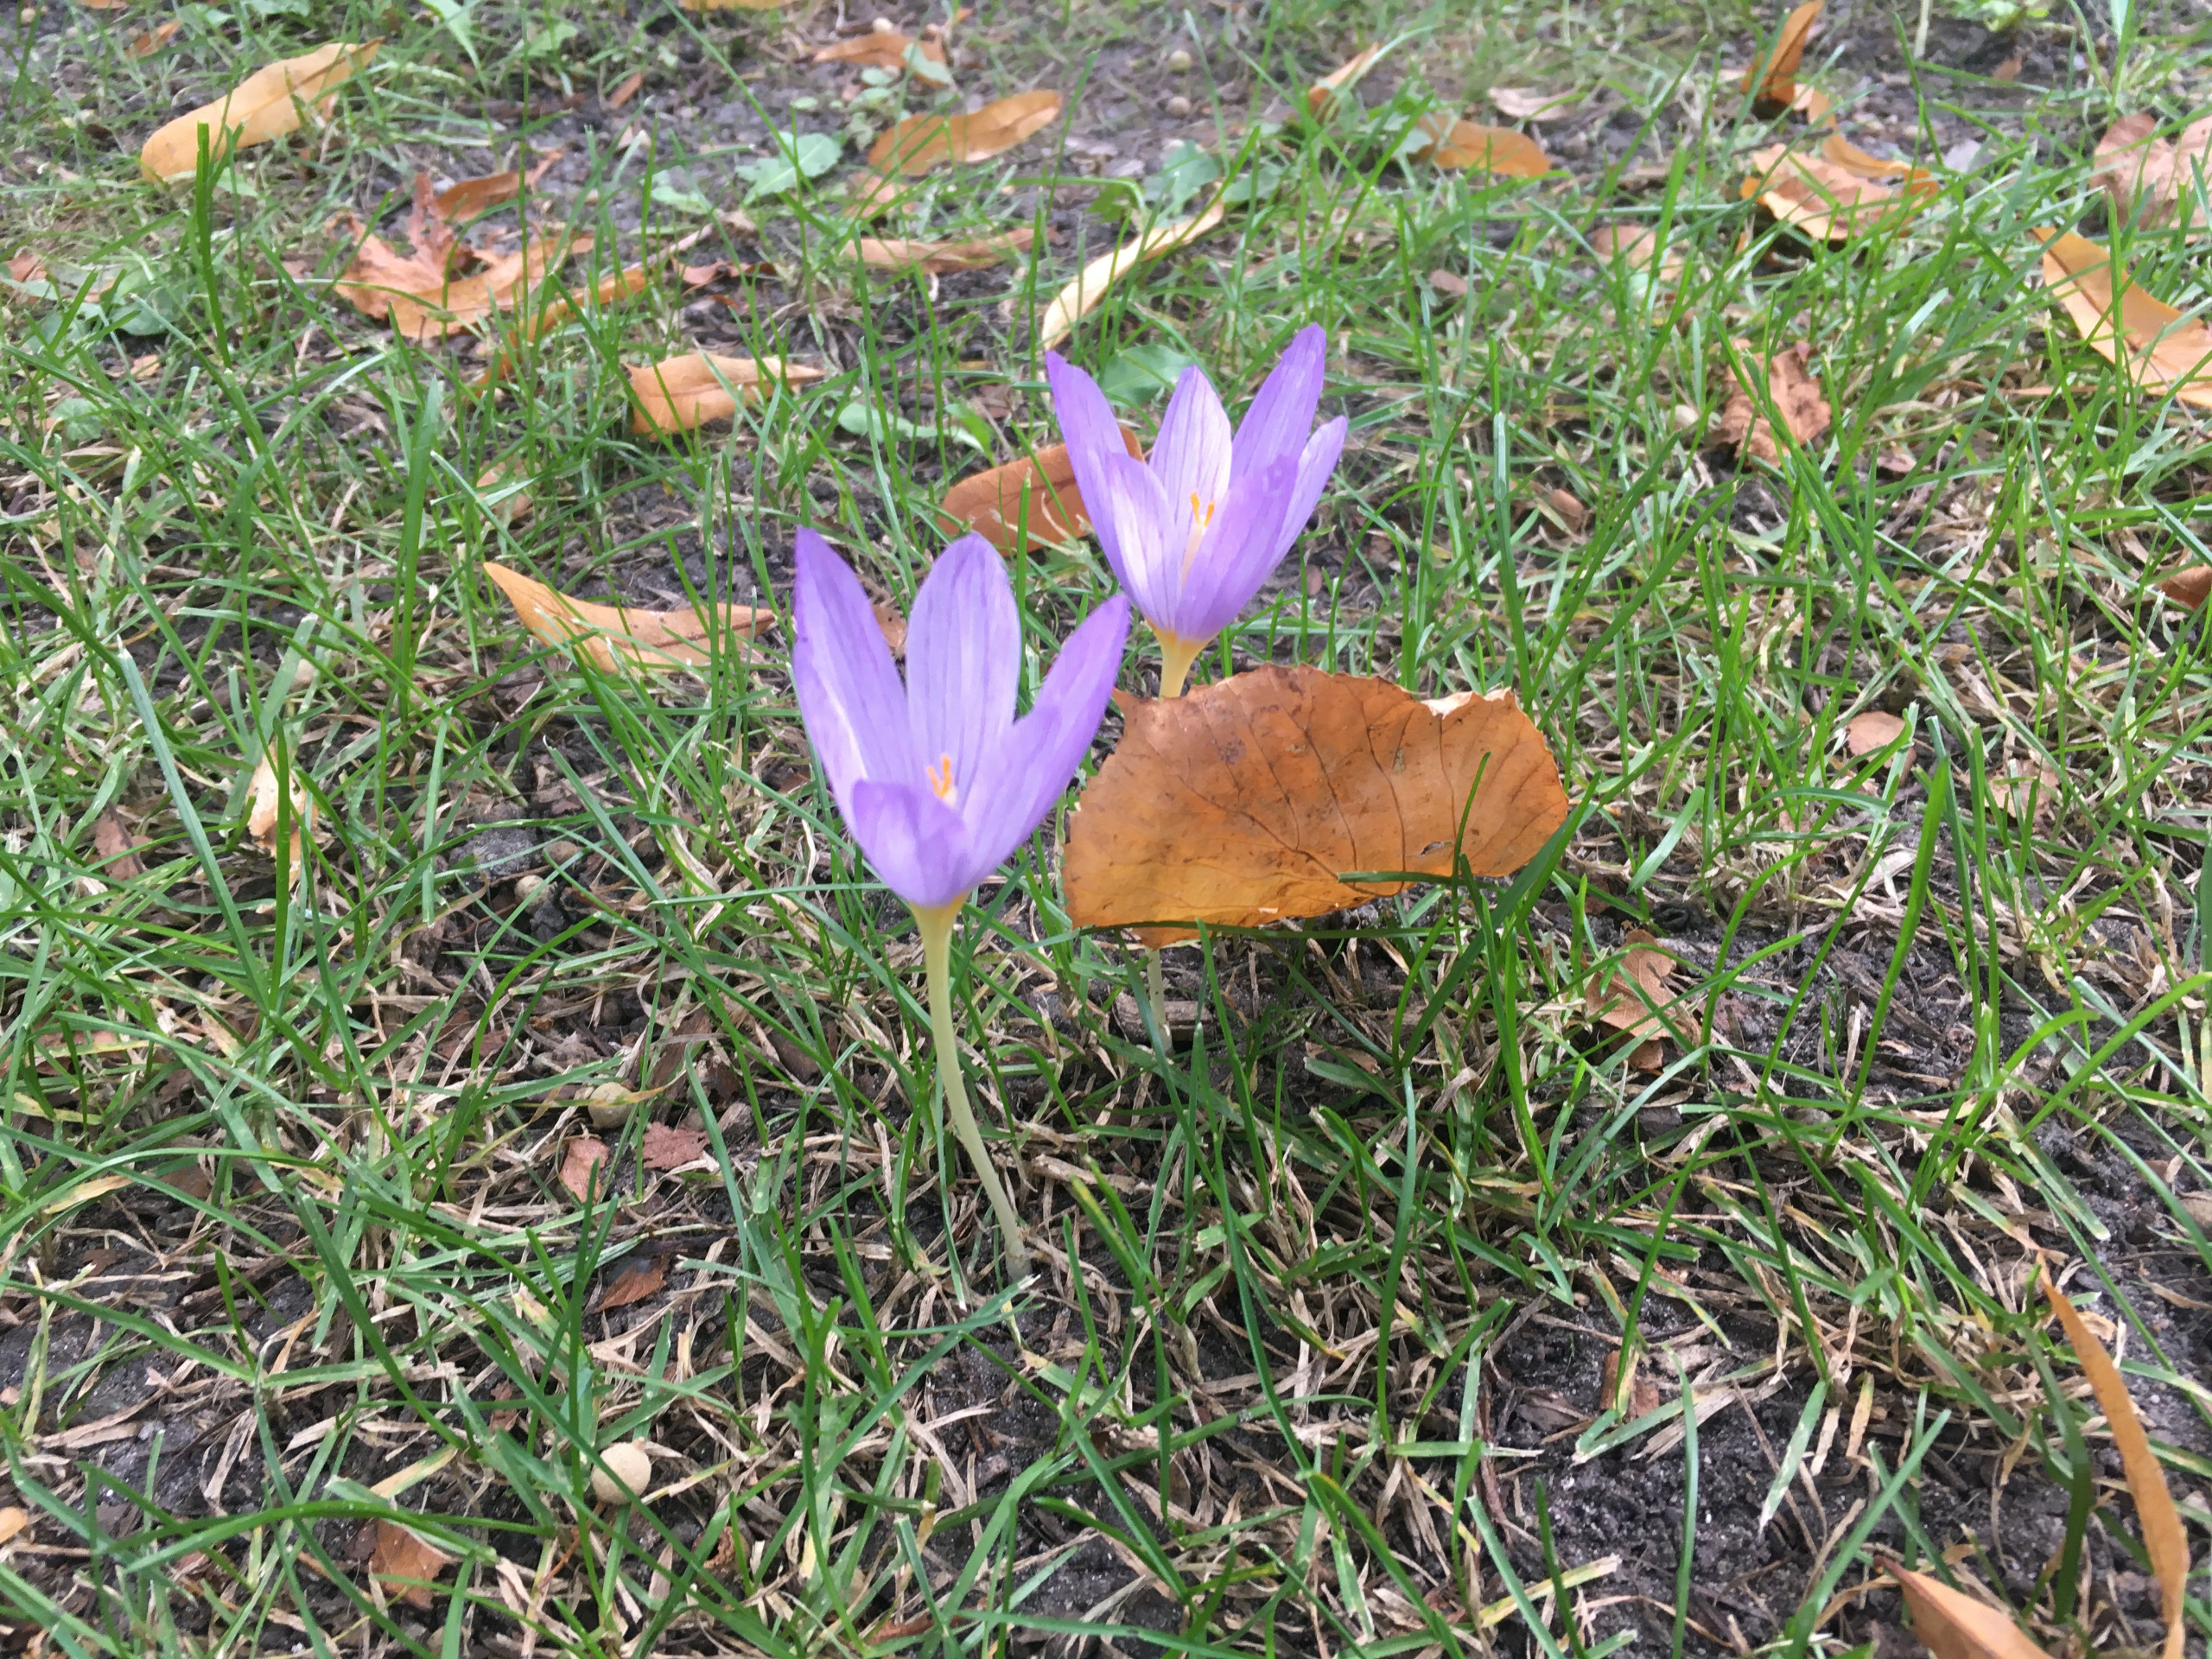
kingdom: Plantae
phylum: Tracheophyta
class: Liliopsida
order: Asparagales
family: Iridaceae
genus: Crocus
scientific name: Crocus kotschyanus
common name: Høst-krokus
